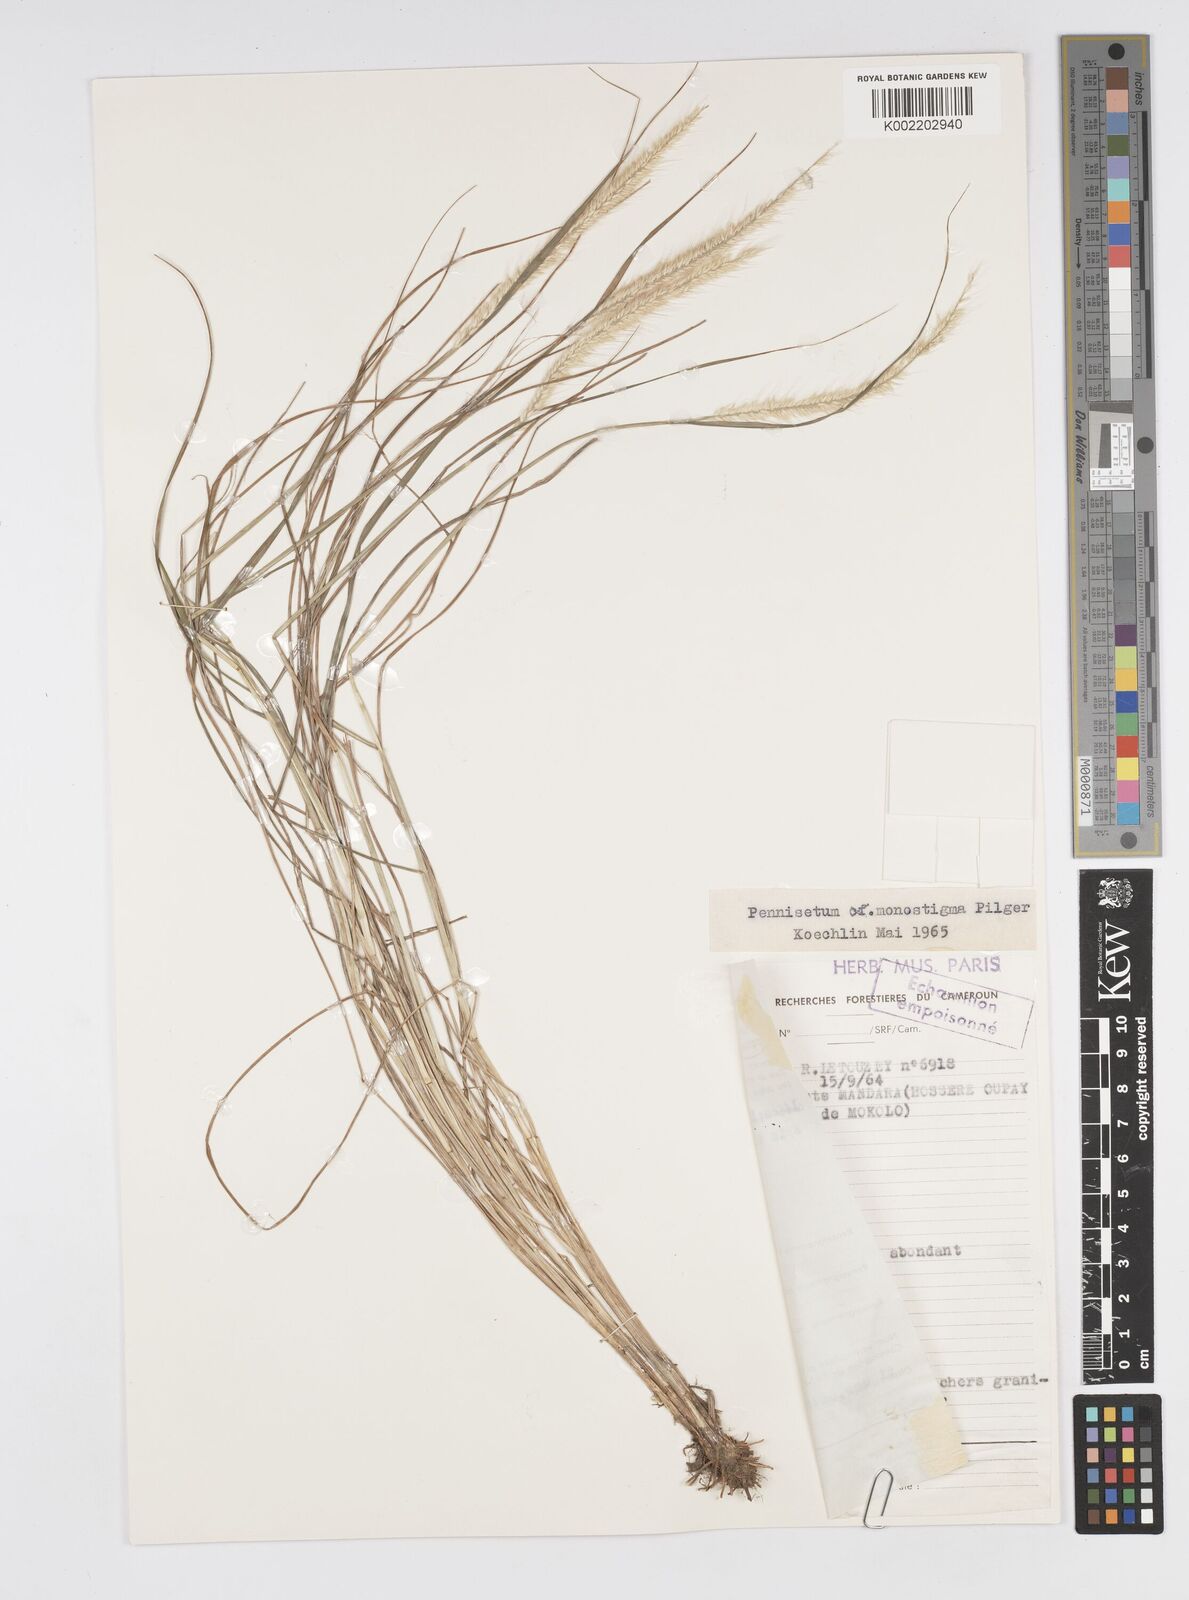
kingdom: Plantae
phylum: Tracheophyta
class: Liliopsida
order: Poales
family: Poaceae
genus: Cenchrus
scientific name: Cenchrus monostigma
